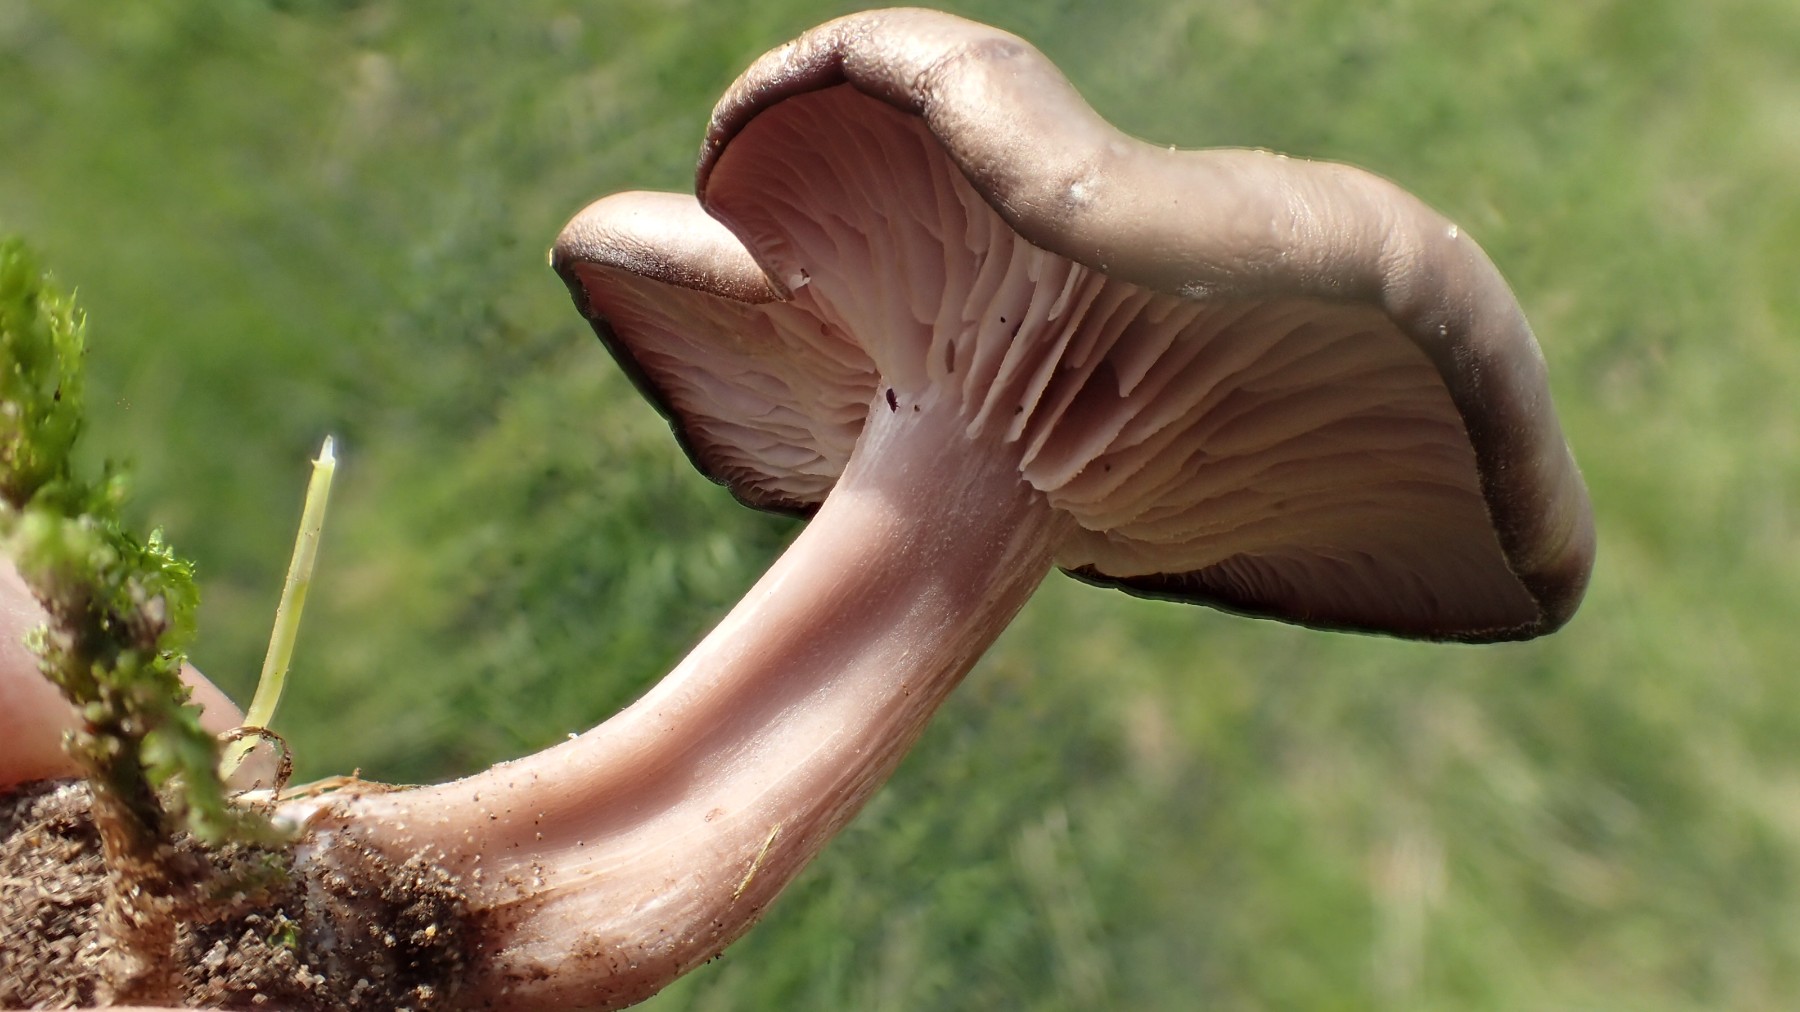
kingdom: Fungi
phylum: Basidiomycota
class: Agaricomycetes
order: Agaricales
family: Entolomataceae
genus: Entoloma
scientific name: Entoloma
